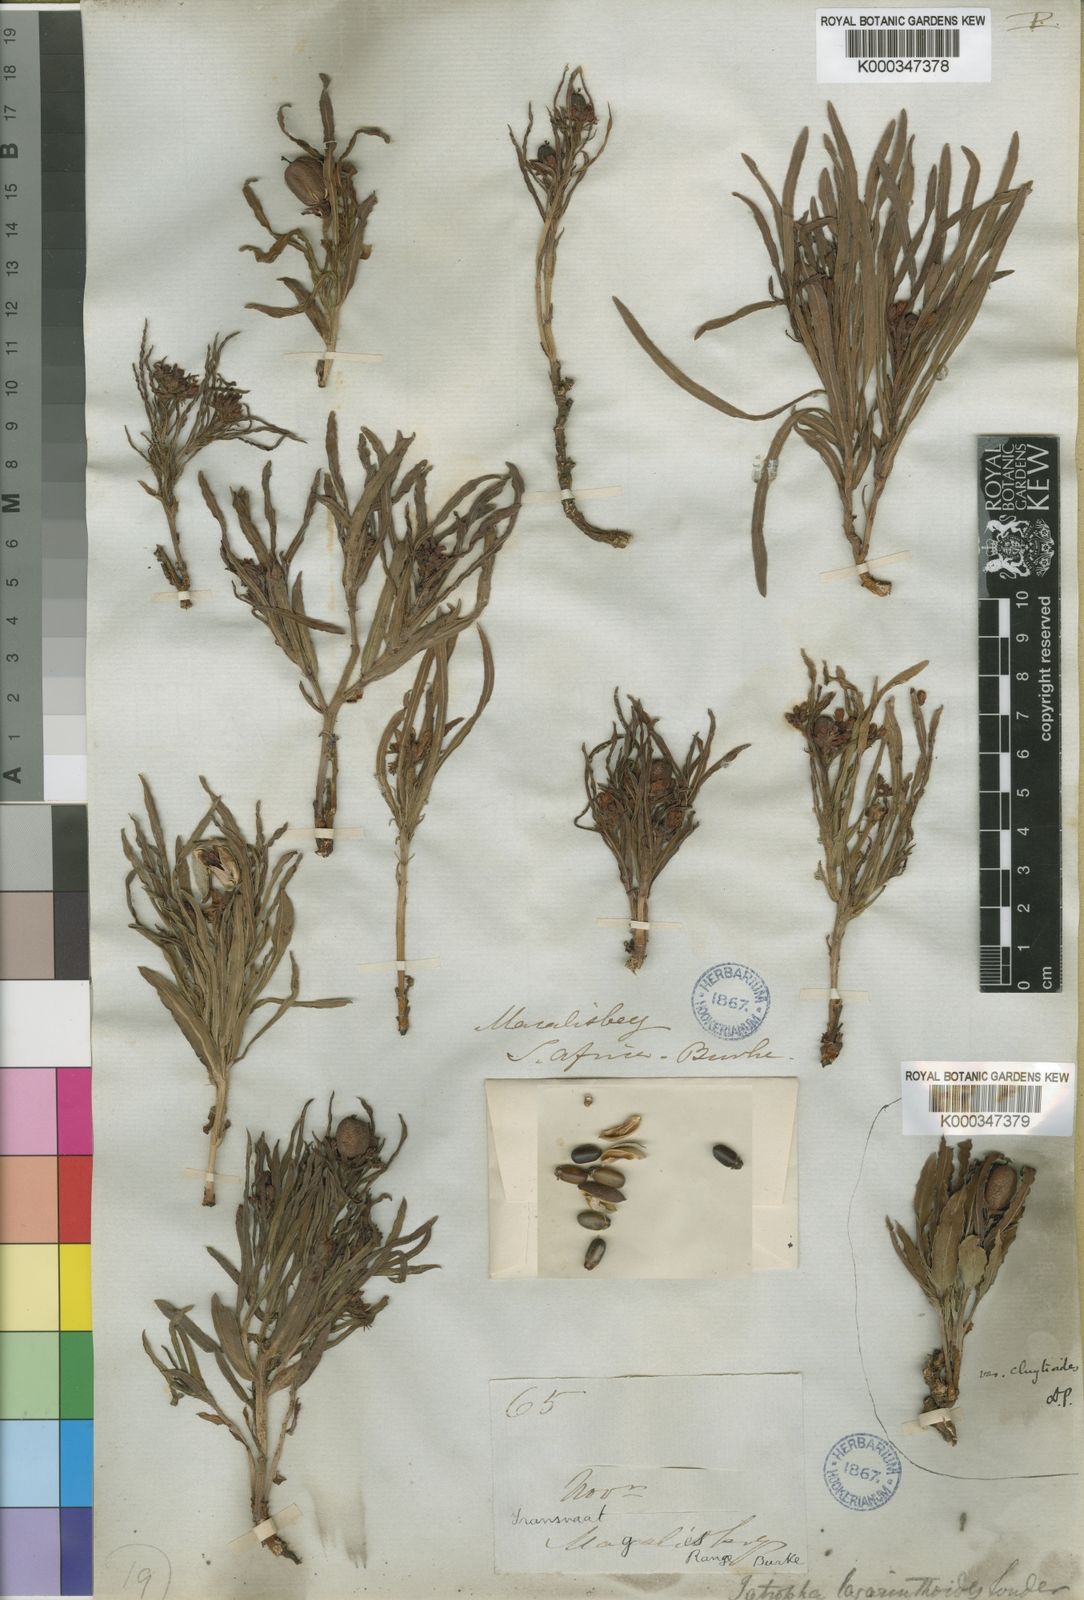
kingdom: Plantae
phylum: Tracheophyta
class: Magnoliopsida
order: Malpighiales
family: Euphorbiaceae
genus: Jatropha
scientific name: Jatropha lagarinthoides
